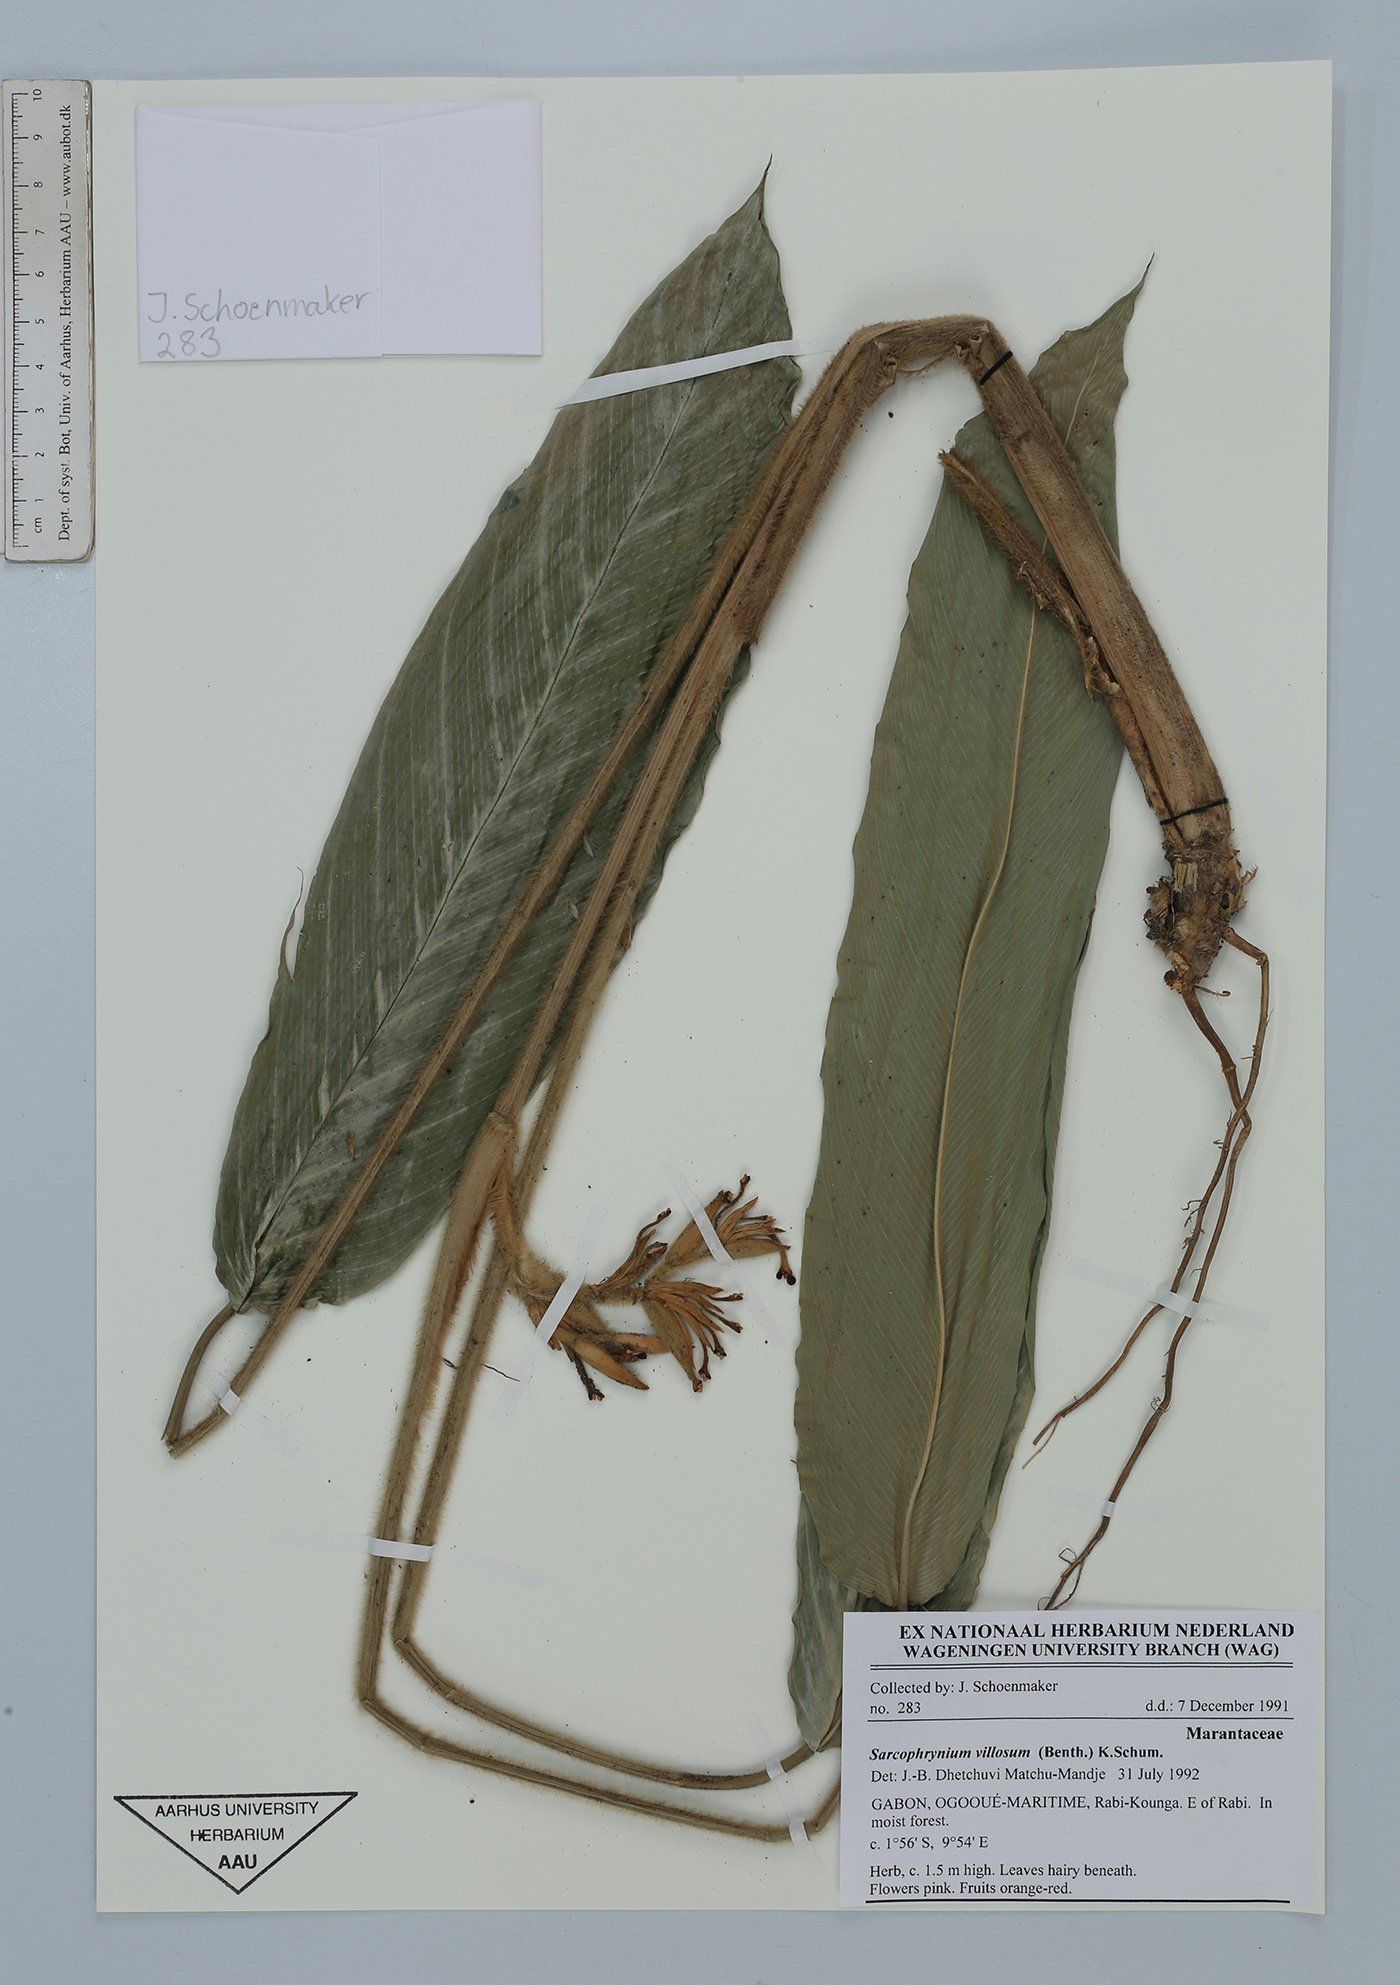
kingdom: Plantae
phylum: Tracheophyta
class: Liliopsida
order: Zingiberales
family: Marantaceae
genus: Sarcophrynium
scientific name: Sarcophrynium villosum
